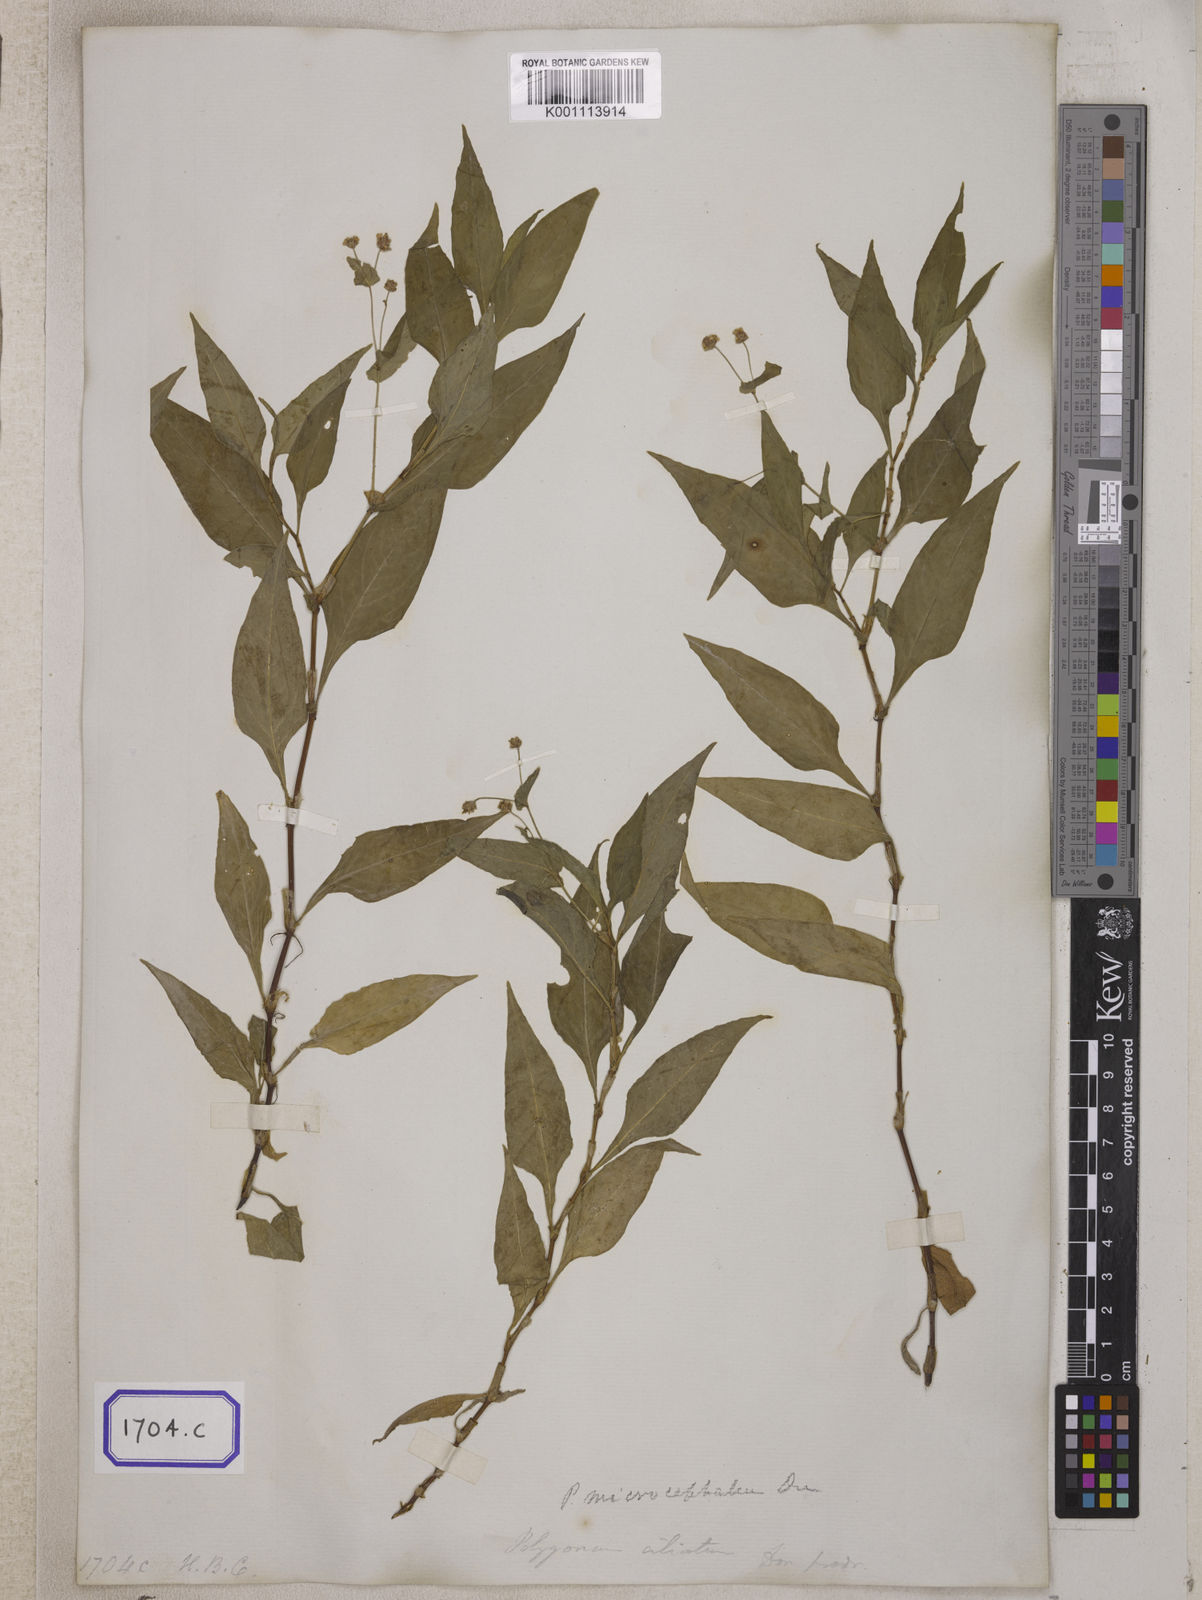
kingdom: Plantae
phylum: Tracheophyta
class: Magnoliopsida
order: Caryophyllales
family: Polygonaceae
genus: Persicaria
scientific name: Persicaria microcephala
